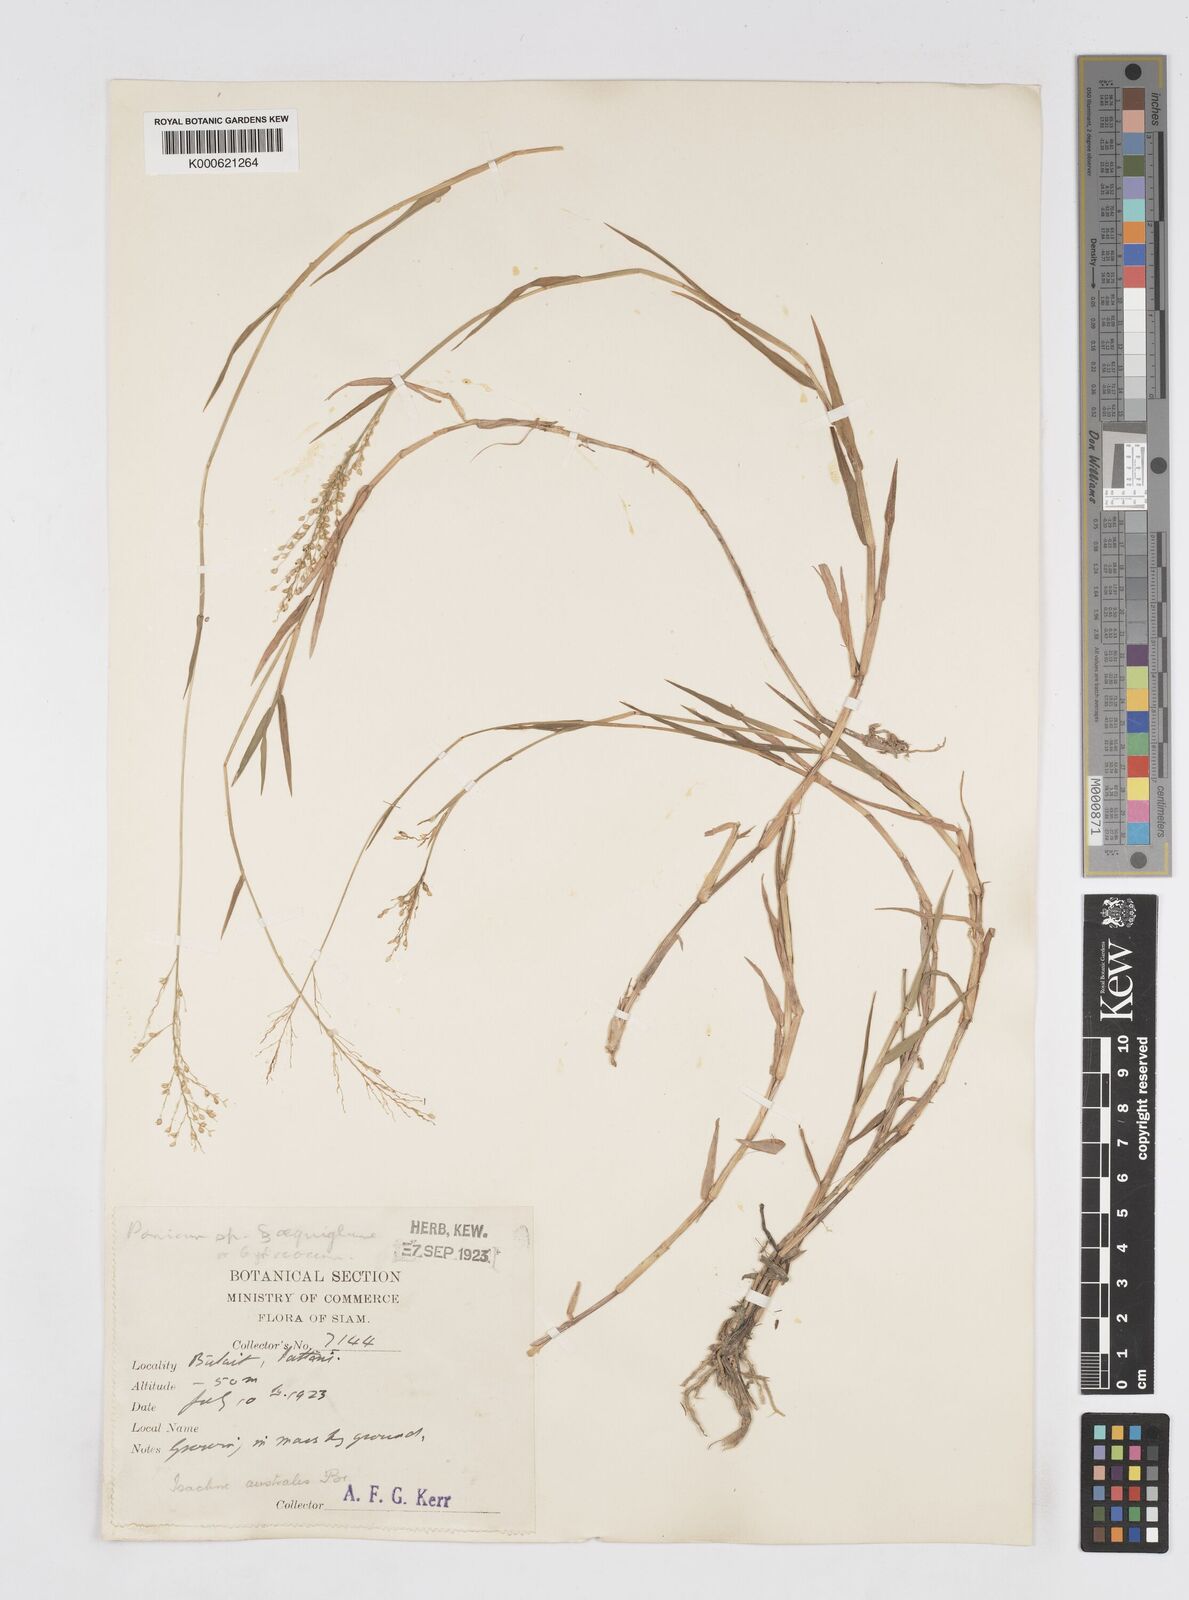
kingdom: Plantae
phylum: Tracheophyta
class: Liliopsida
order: Poales
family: Poaceae
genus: Isachne
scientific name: Isachne globosa
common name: Swamp millet
